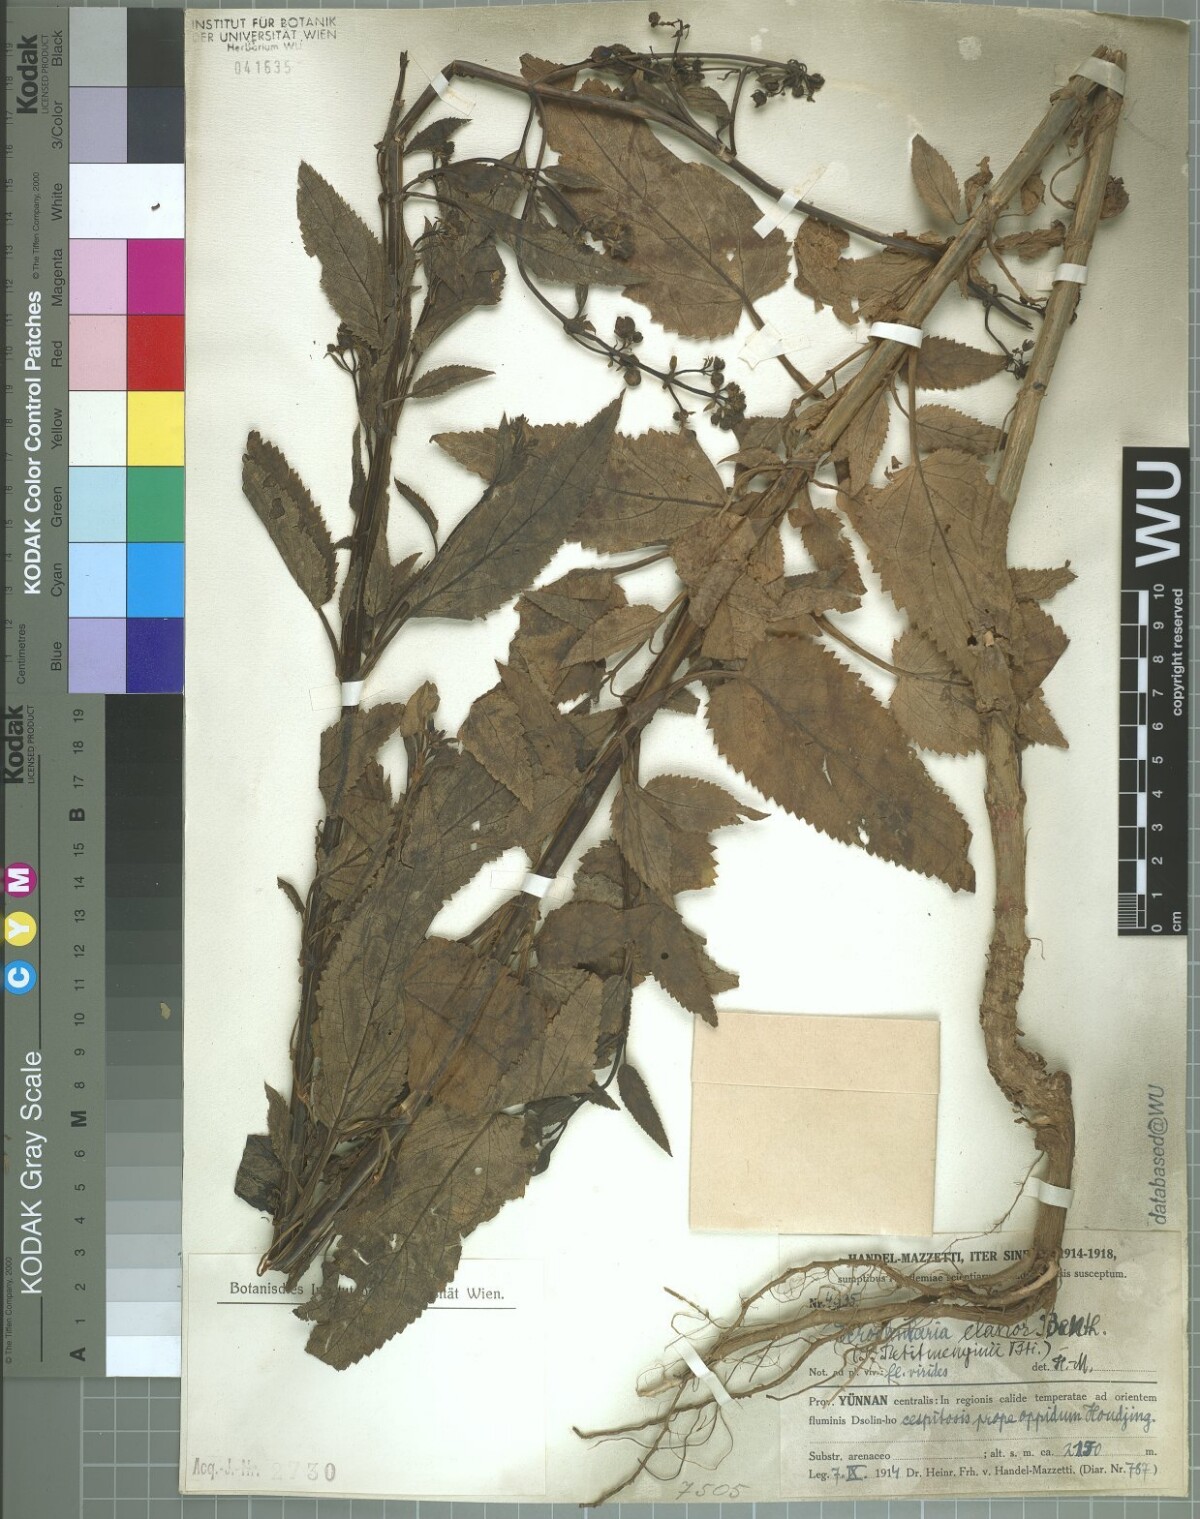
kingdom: Plantae
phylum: Tracheophyta
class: Magnoliopsida
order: Lamiales
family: Scrophulariaceae
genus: Scrophularia
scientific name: Scrophularia elatior
